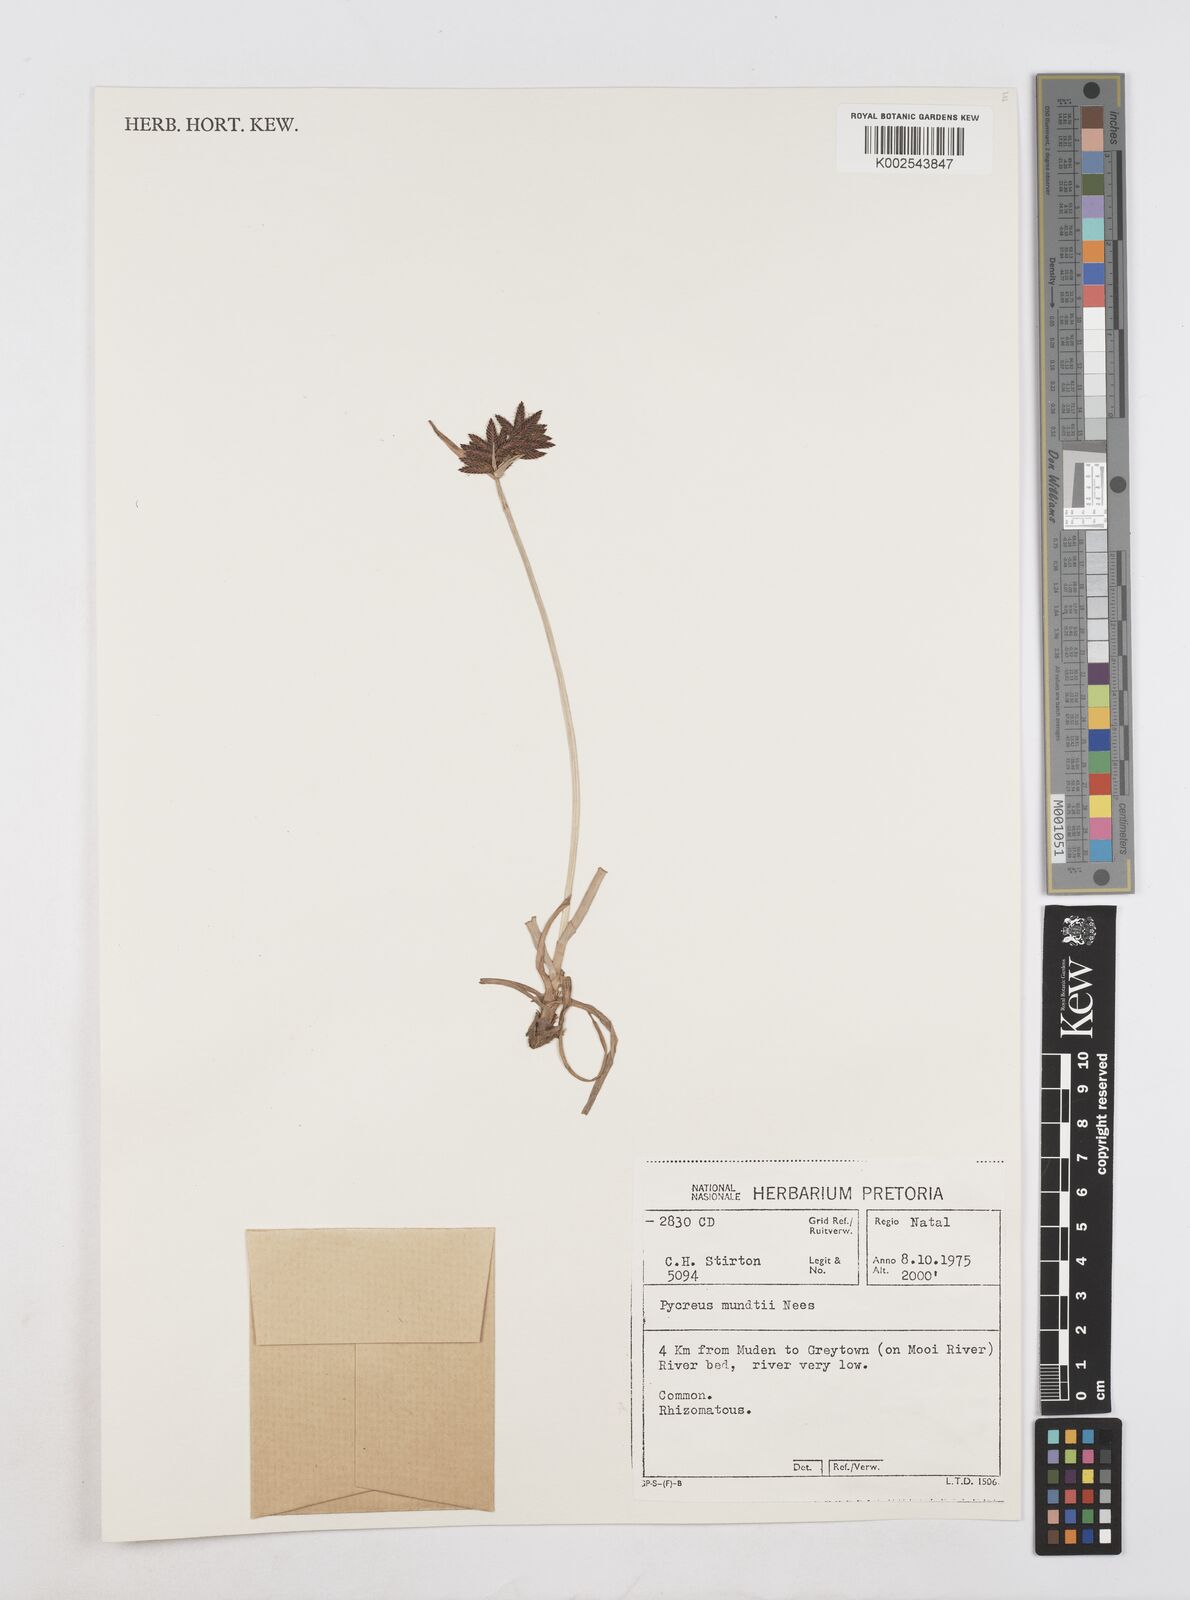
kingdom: Plantae
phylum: Tracheophyta
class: Liliopsida
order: Poales
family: Cyperaceae
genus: Cyperus
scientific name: Cyperus mundii
